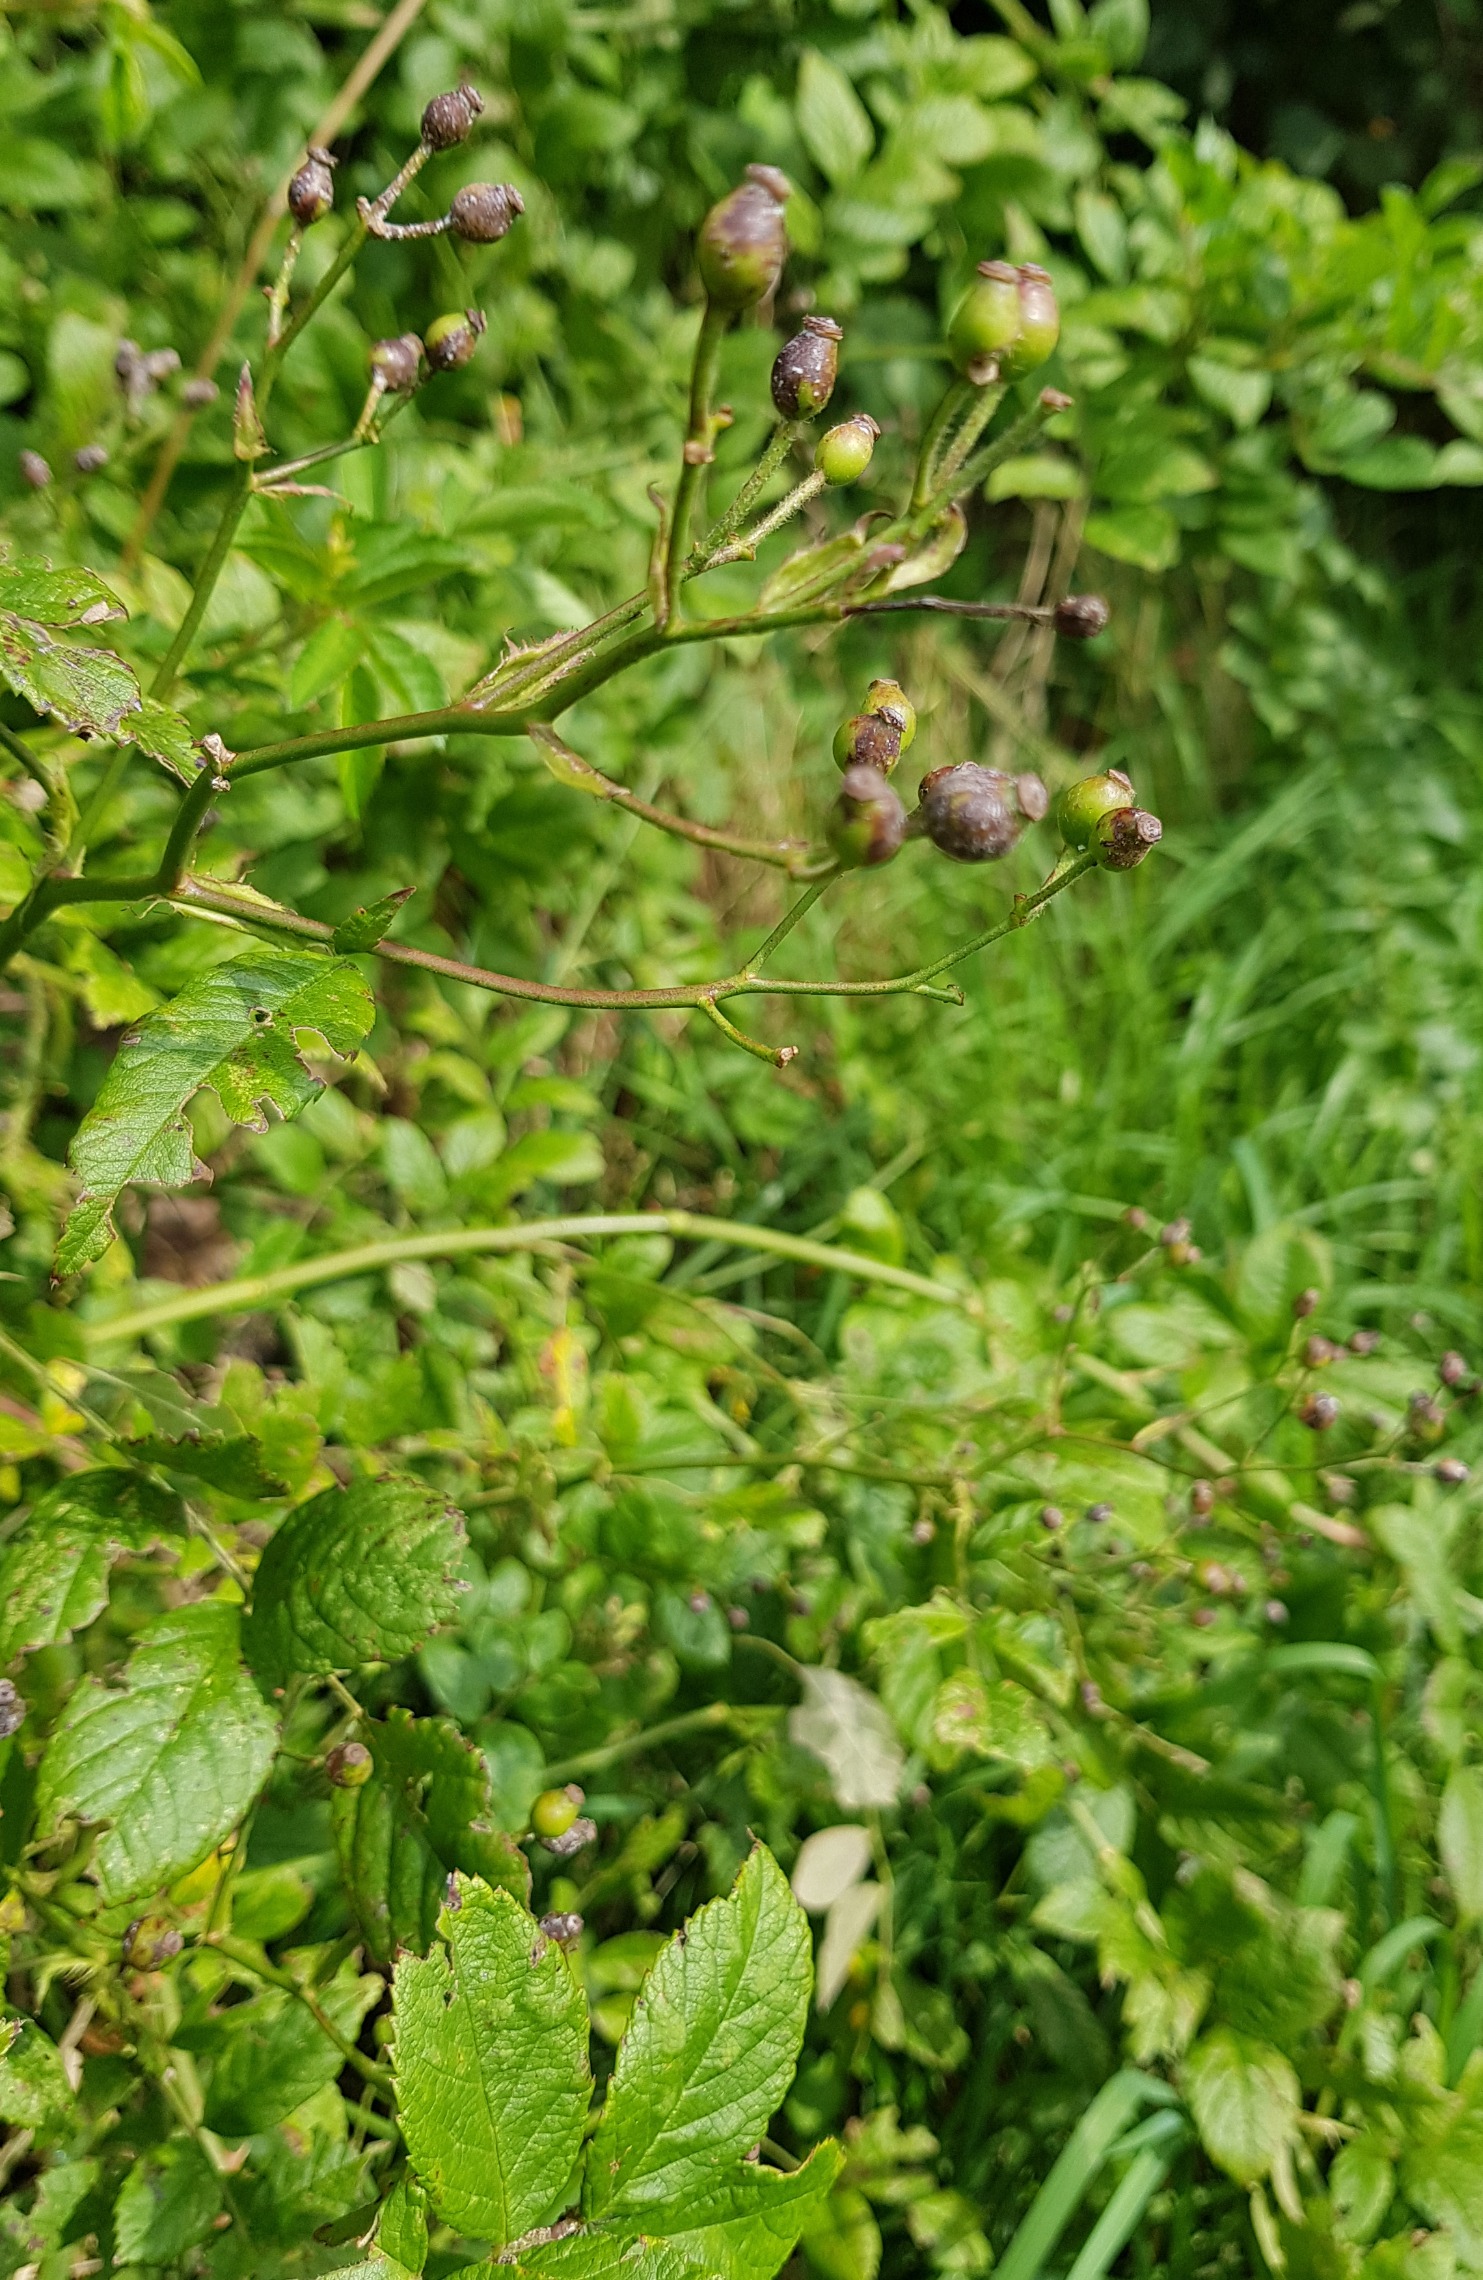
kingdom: Plantae
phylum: Tracheophyta
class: Magnoliopsida
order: Rosales
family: Rosaceae
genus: Rosa
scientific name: Rosa multiflora
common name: Mangeblomstret rose
